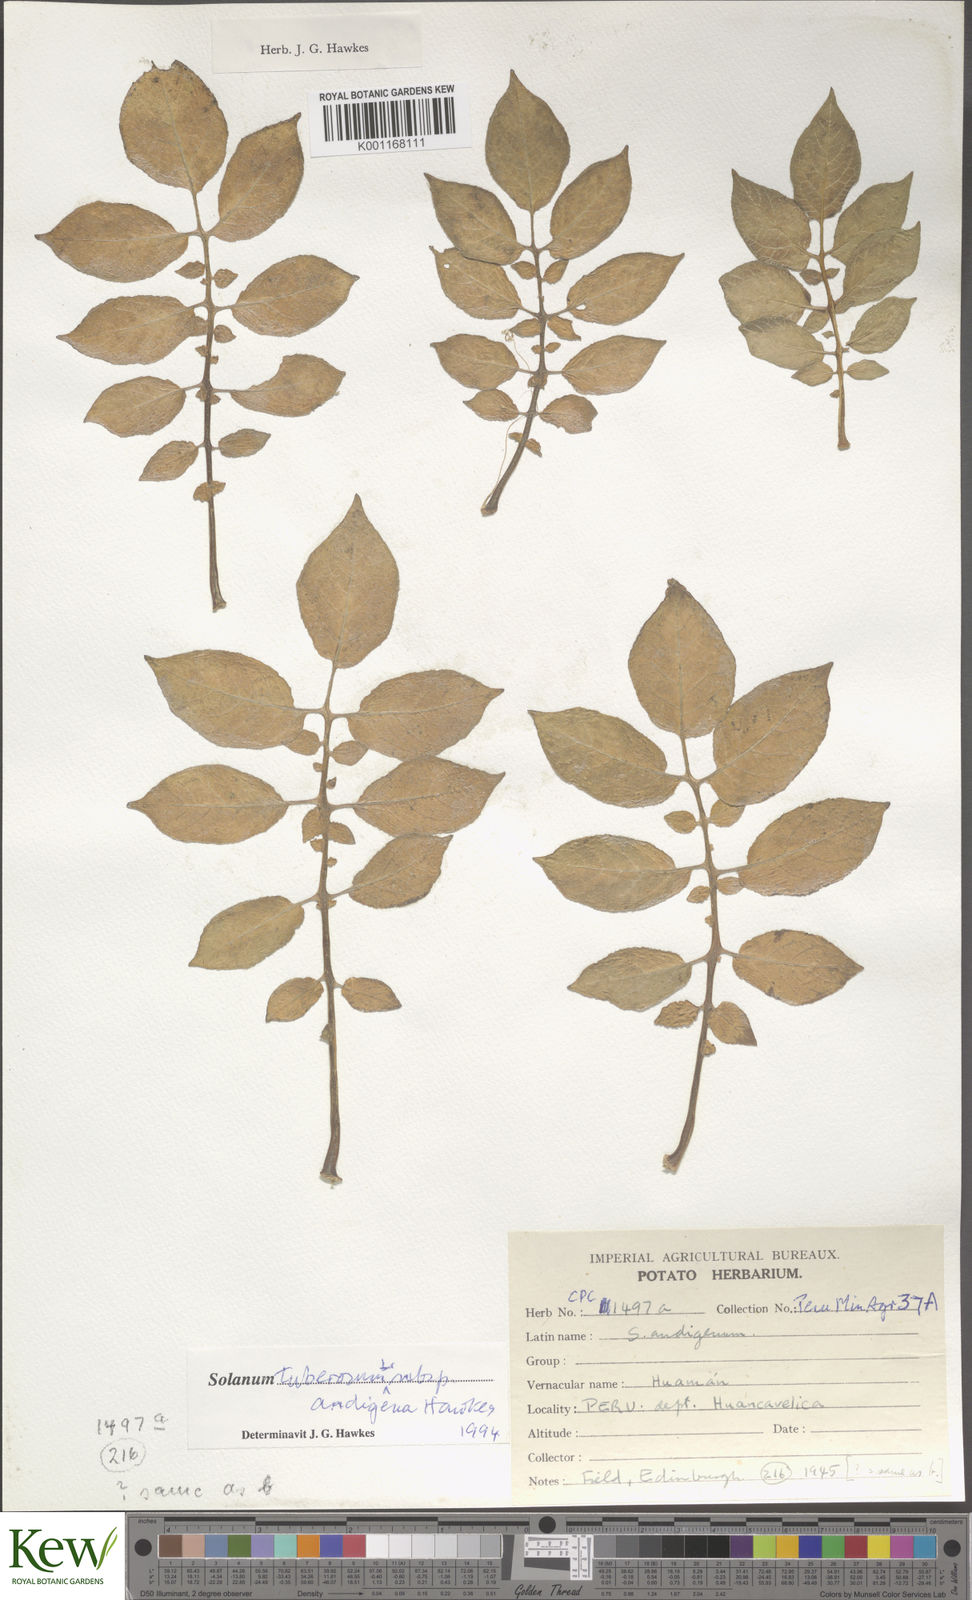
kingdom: Plantae
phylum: Tracheophyta
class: Magnoliopsida
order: Solanales
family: Solanaceae
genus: Solanum
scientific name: Solanum tuberosum
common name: Potato
